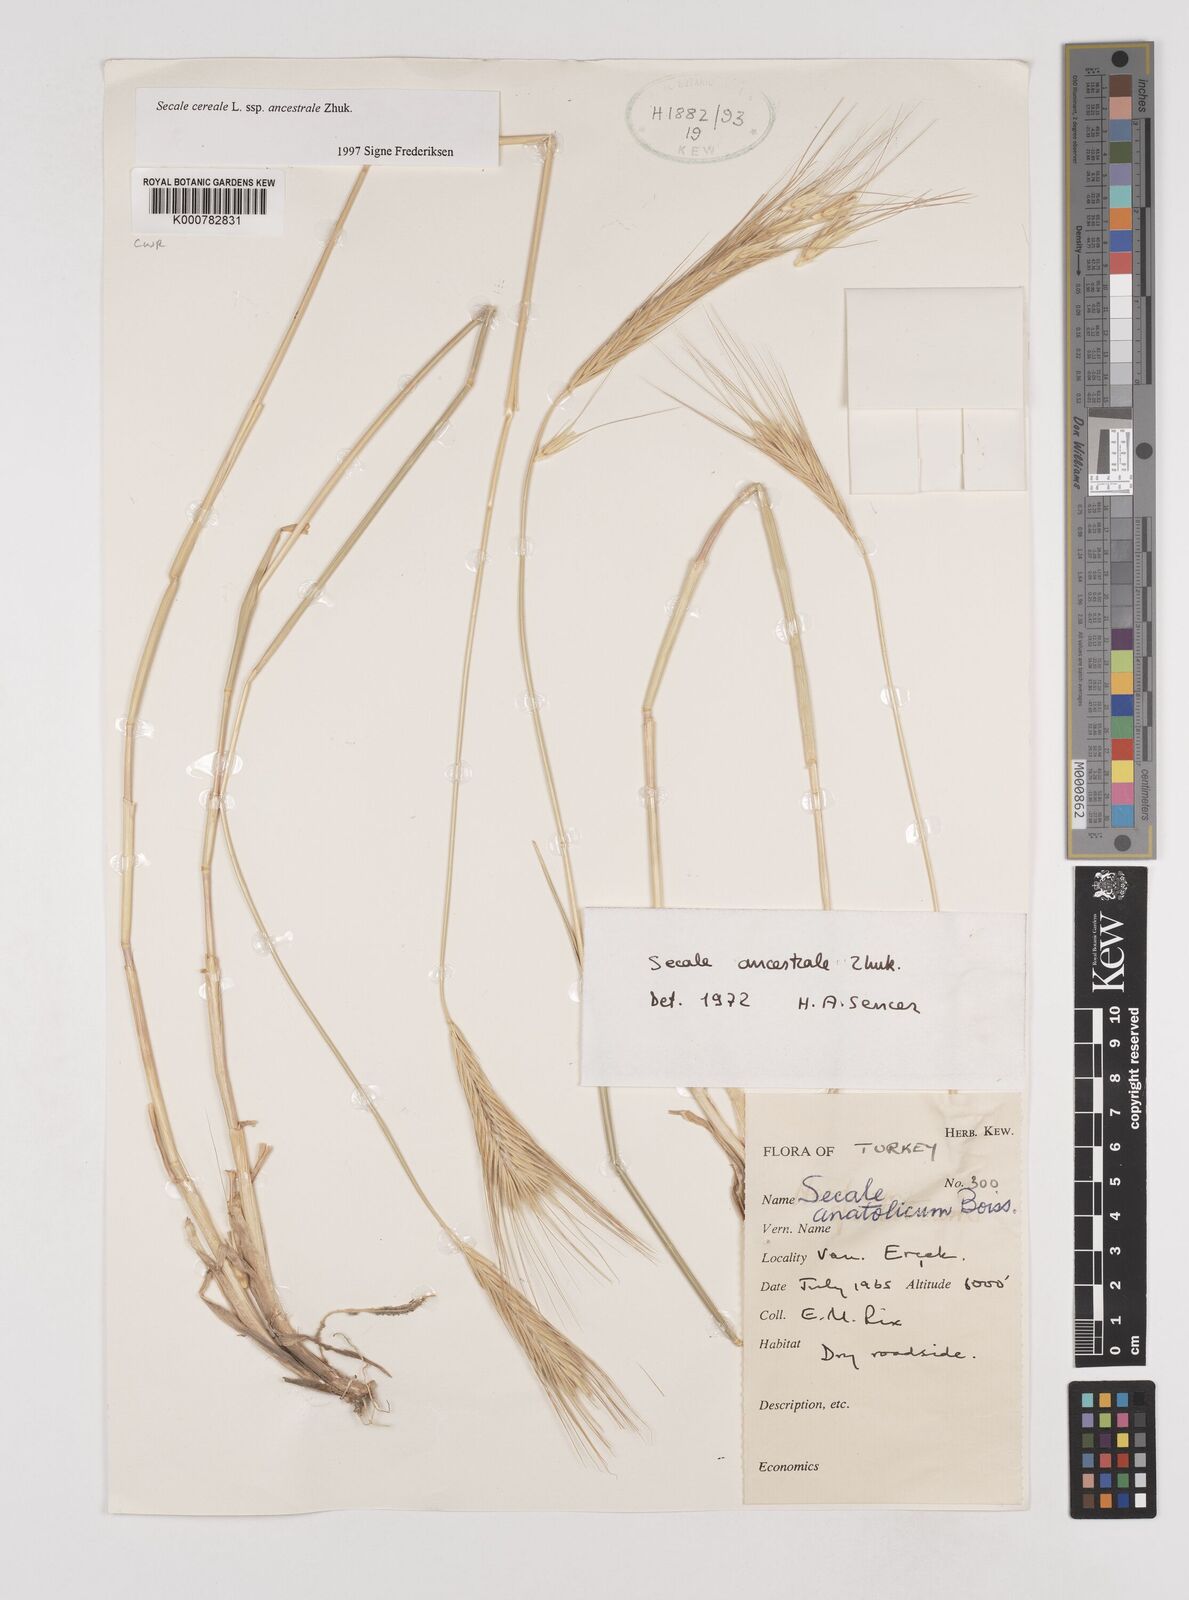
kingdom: Plantae
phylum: Tracheophyta
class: Liliopsida
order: Poales
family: Poaceae
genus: Secale
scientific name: Secale cereale
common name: Rye
